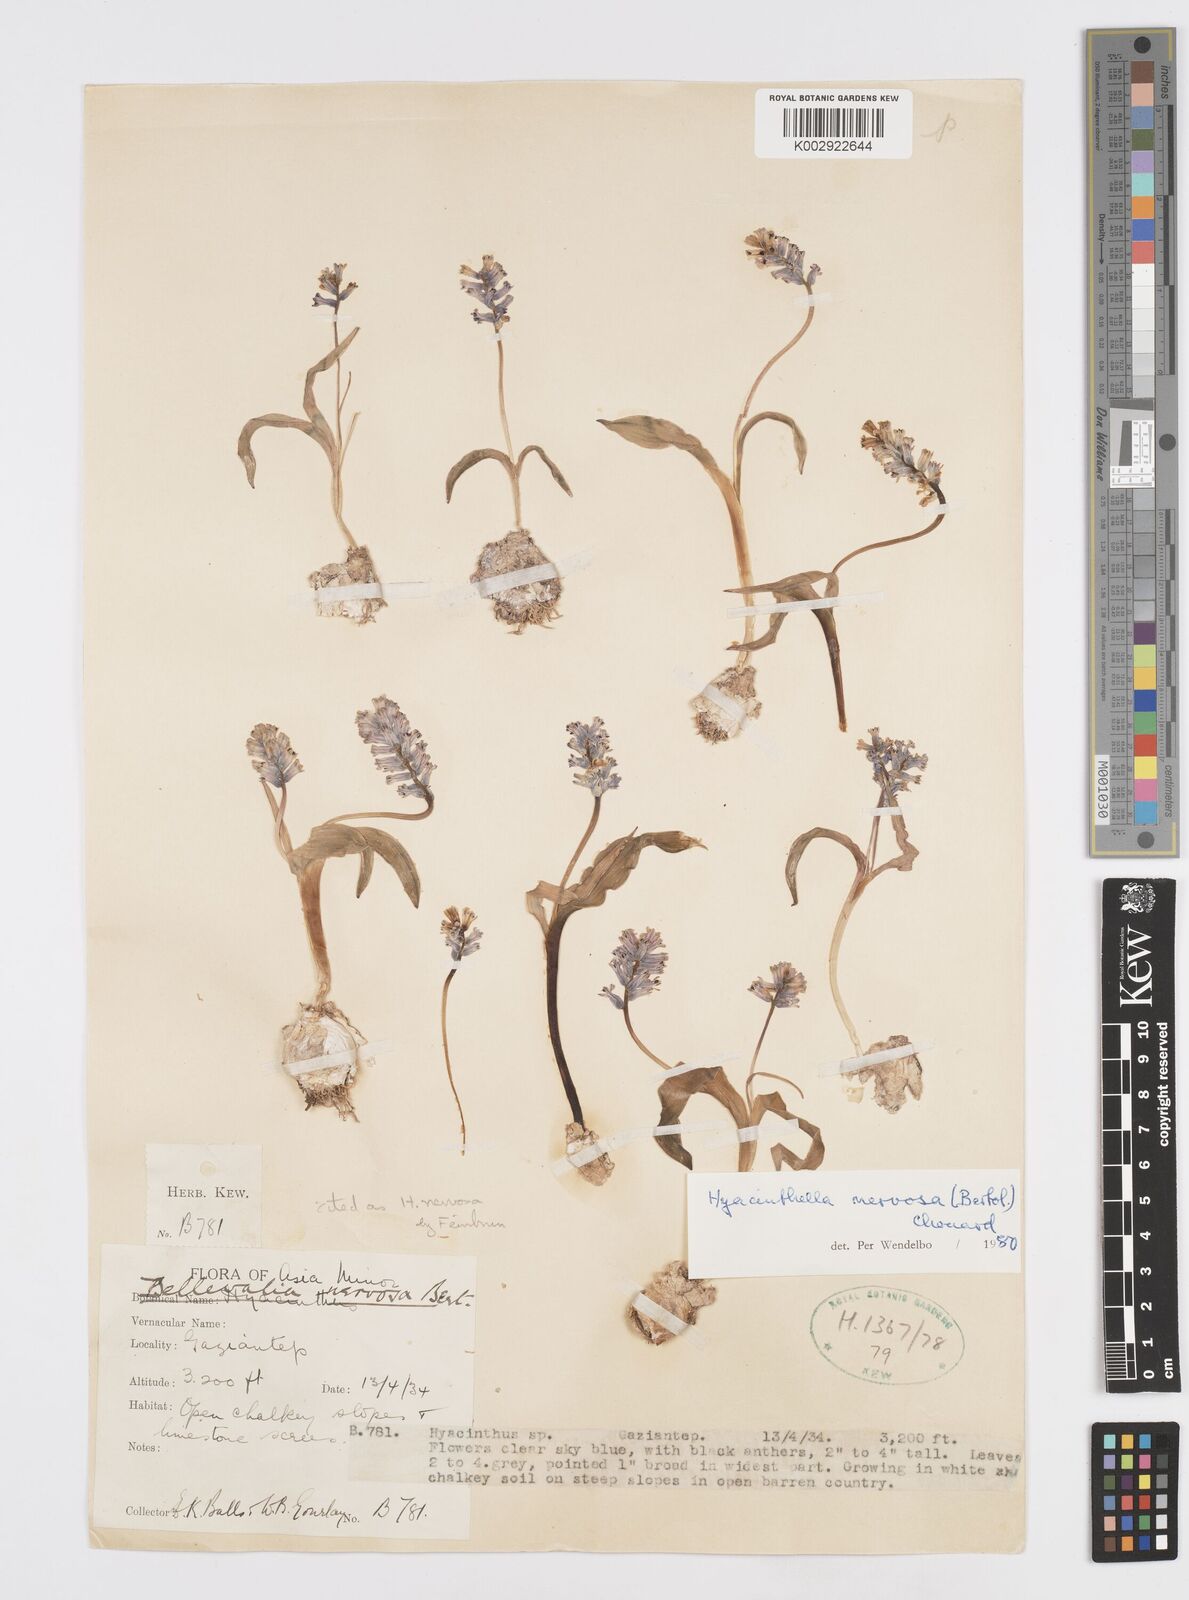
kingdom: Plantae
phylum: Tracheophyta
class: Liliopsida
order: Asparagales
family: Asparagaceae
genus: Hyacinthella
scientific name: Hyacinthella nervosa
